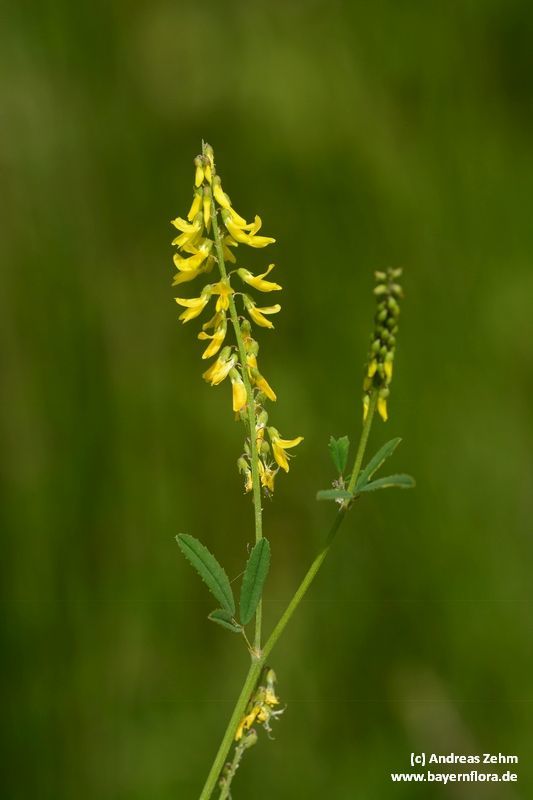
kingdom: Plantae
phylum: Tracheophyta
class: Magnoliopsida
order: Fabales
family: Fabaceae
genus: Melilotus
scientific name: Melilotus officinalis
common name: Sweetclover
